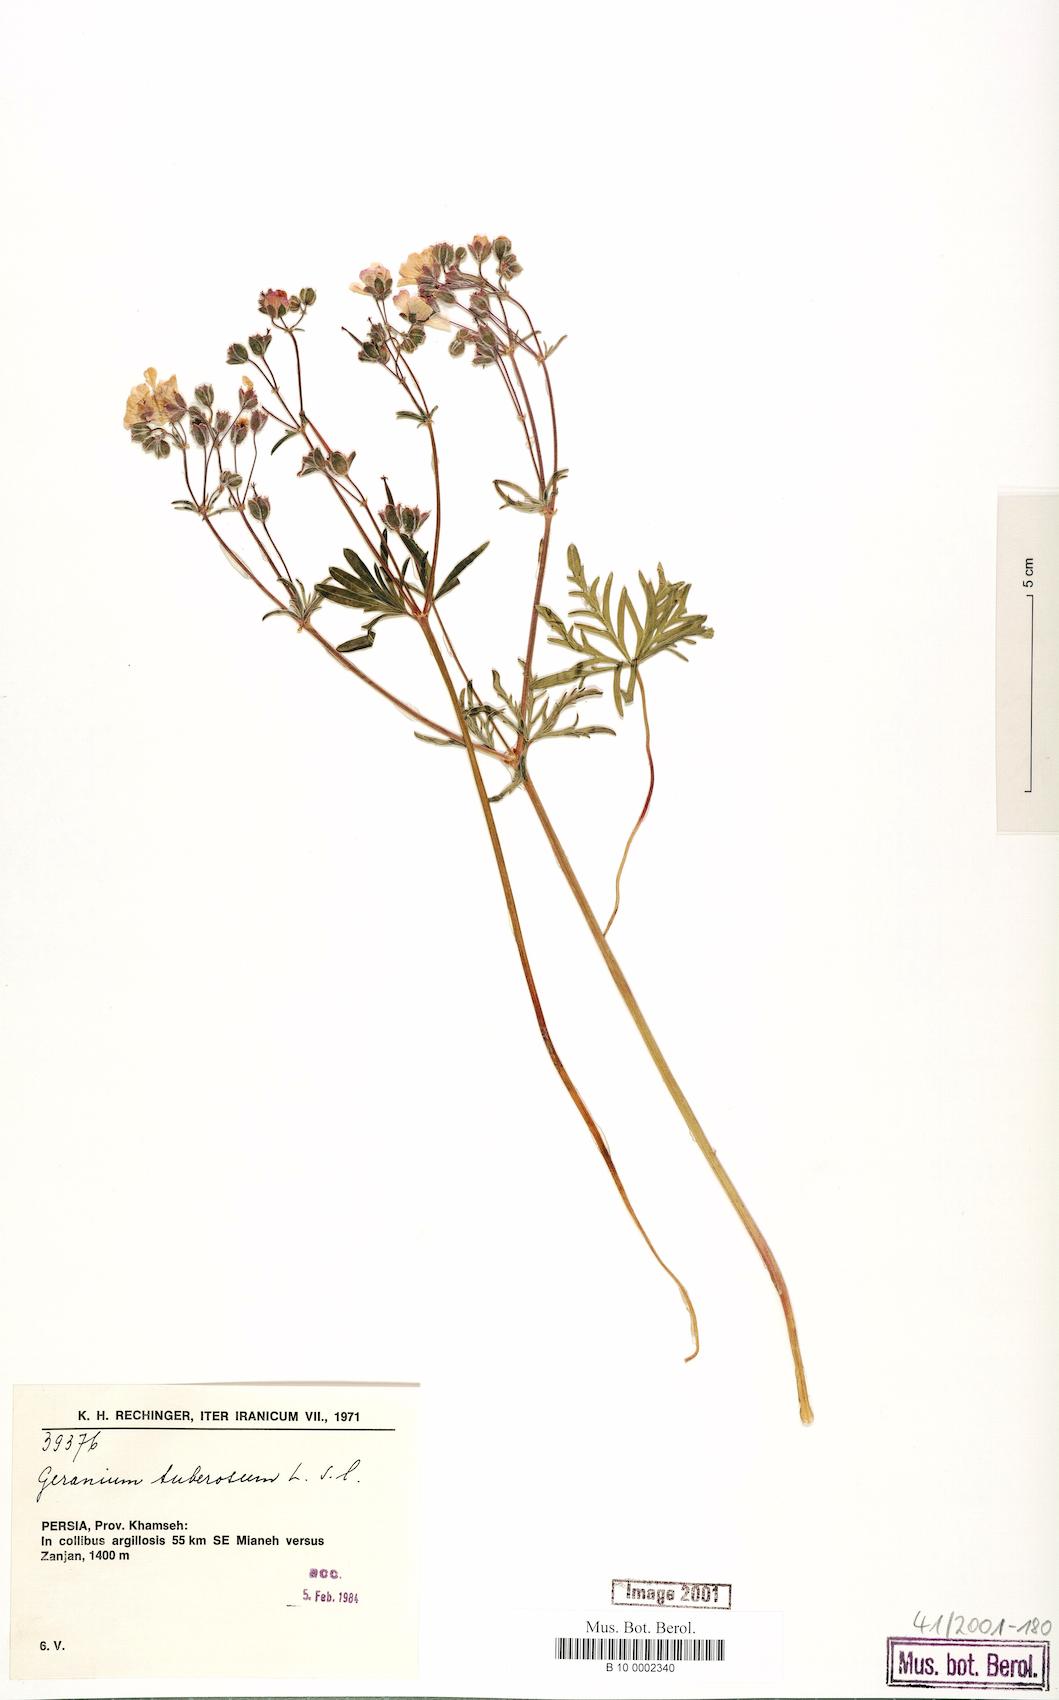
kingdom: Plantae
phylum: Tracheophyta
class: Magnoliopsida
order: Geraniales
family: Geraniaceae
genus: Geranium
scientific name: Geranium tuberosum
